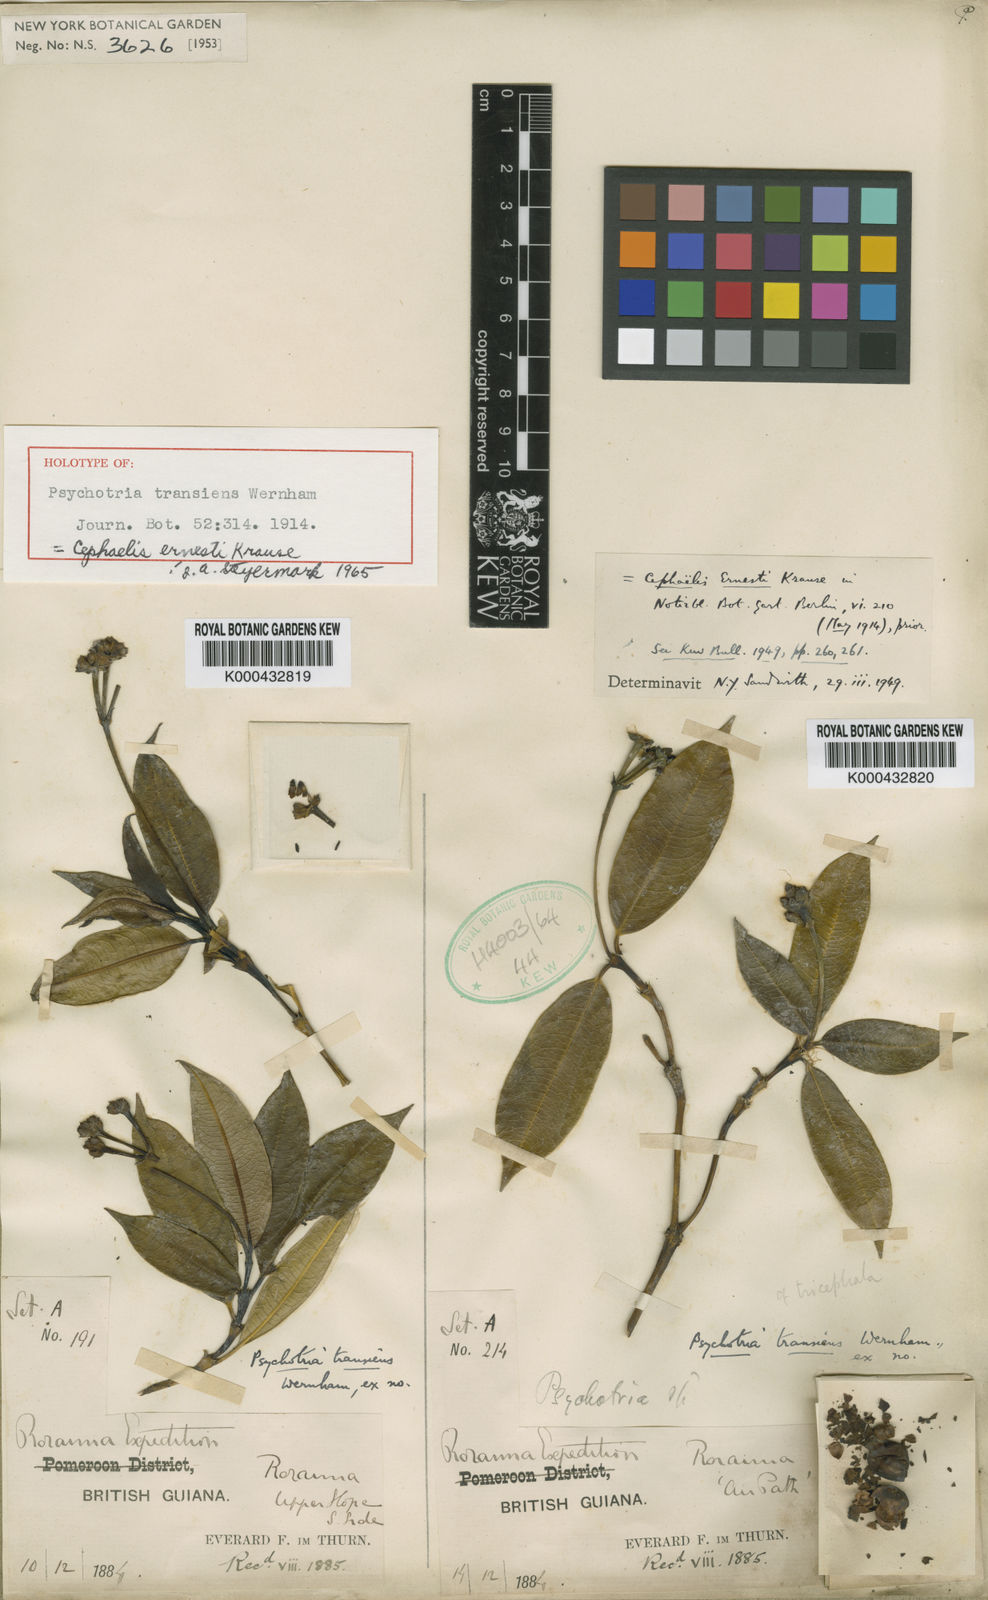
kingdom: Plantae
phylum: Tracheophyta
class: Magnoliopsida
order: Gentianales
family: Rubiaceae
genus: Palicourea
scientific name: Palicourea ernestii
